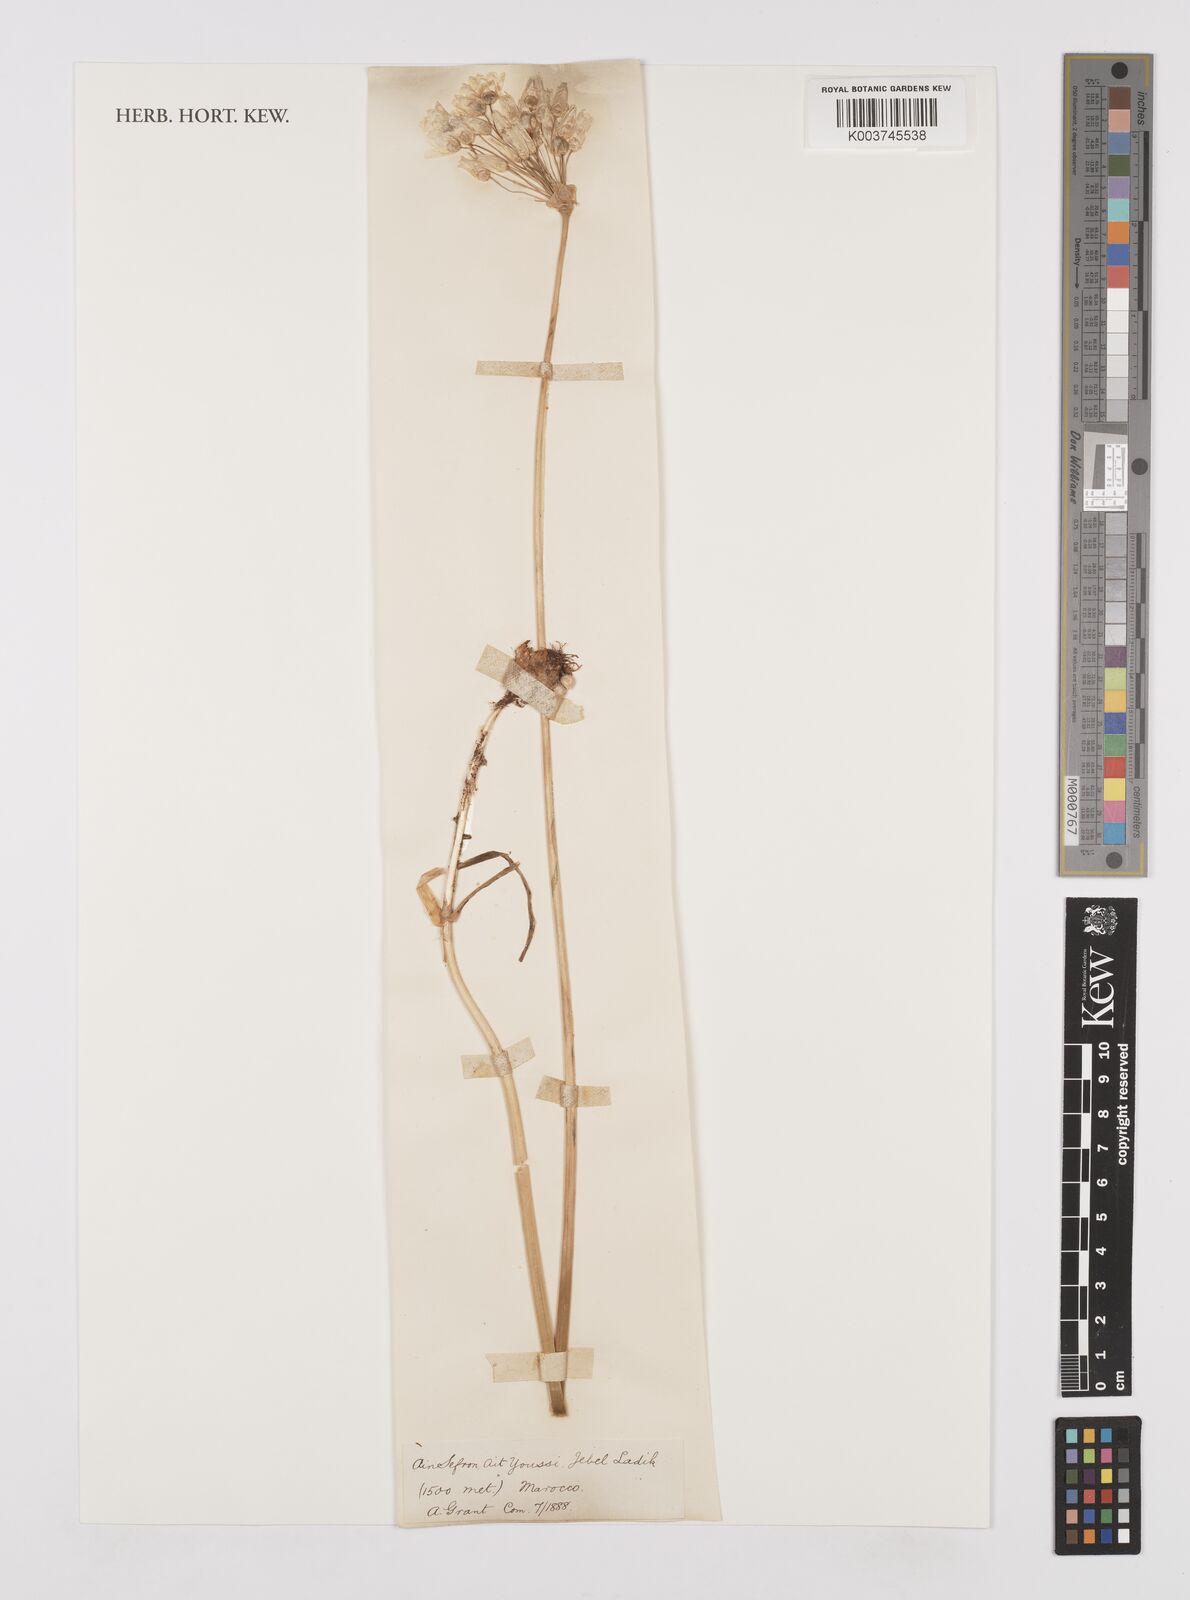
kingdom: Plantae
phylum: Tracheophyta
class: Liliopsida
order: Asparagales
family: Amaryllidaceae
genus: Allium
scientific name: Allium roseum
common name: Rosy garlic
